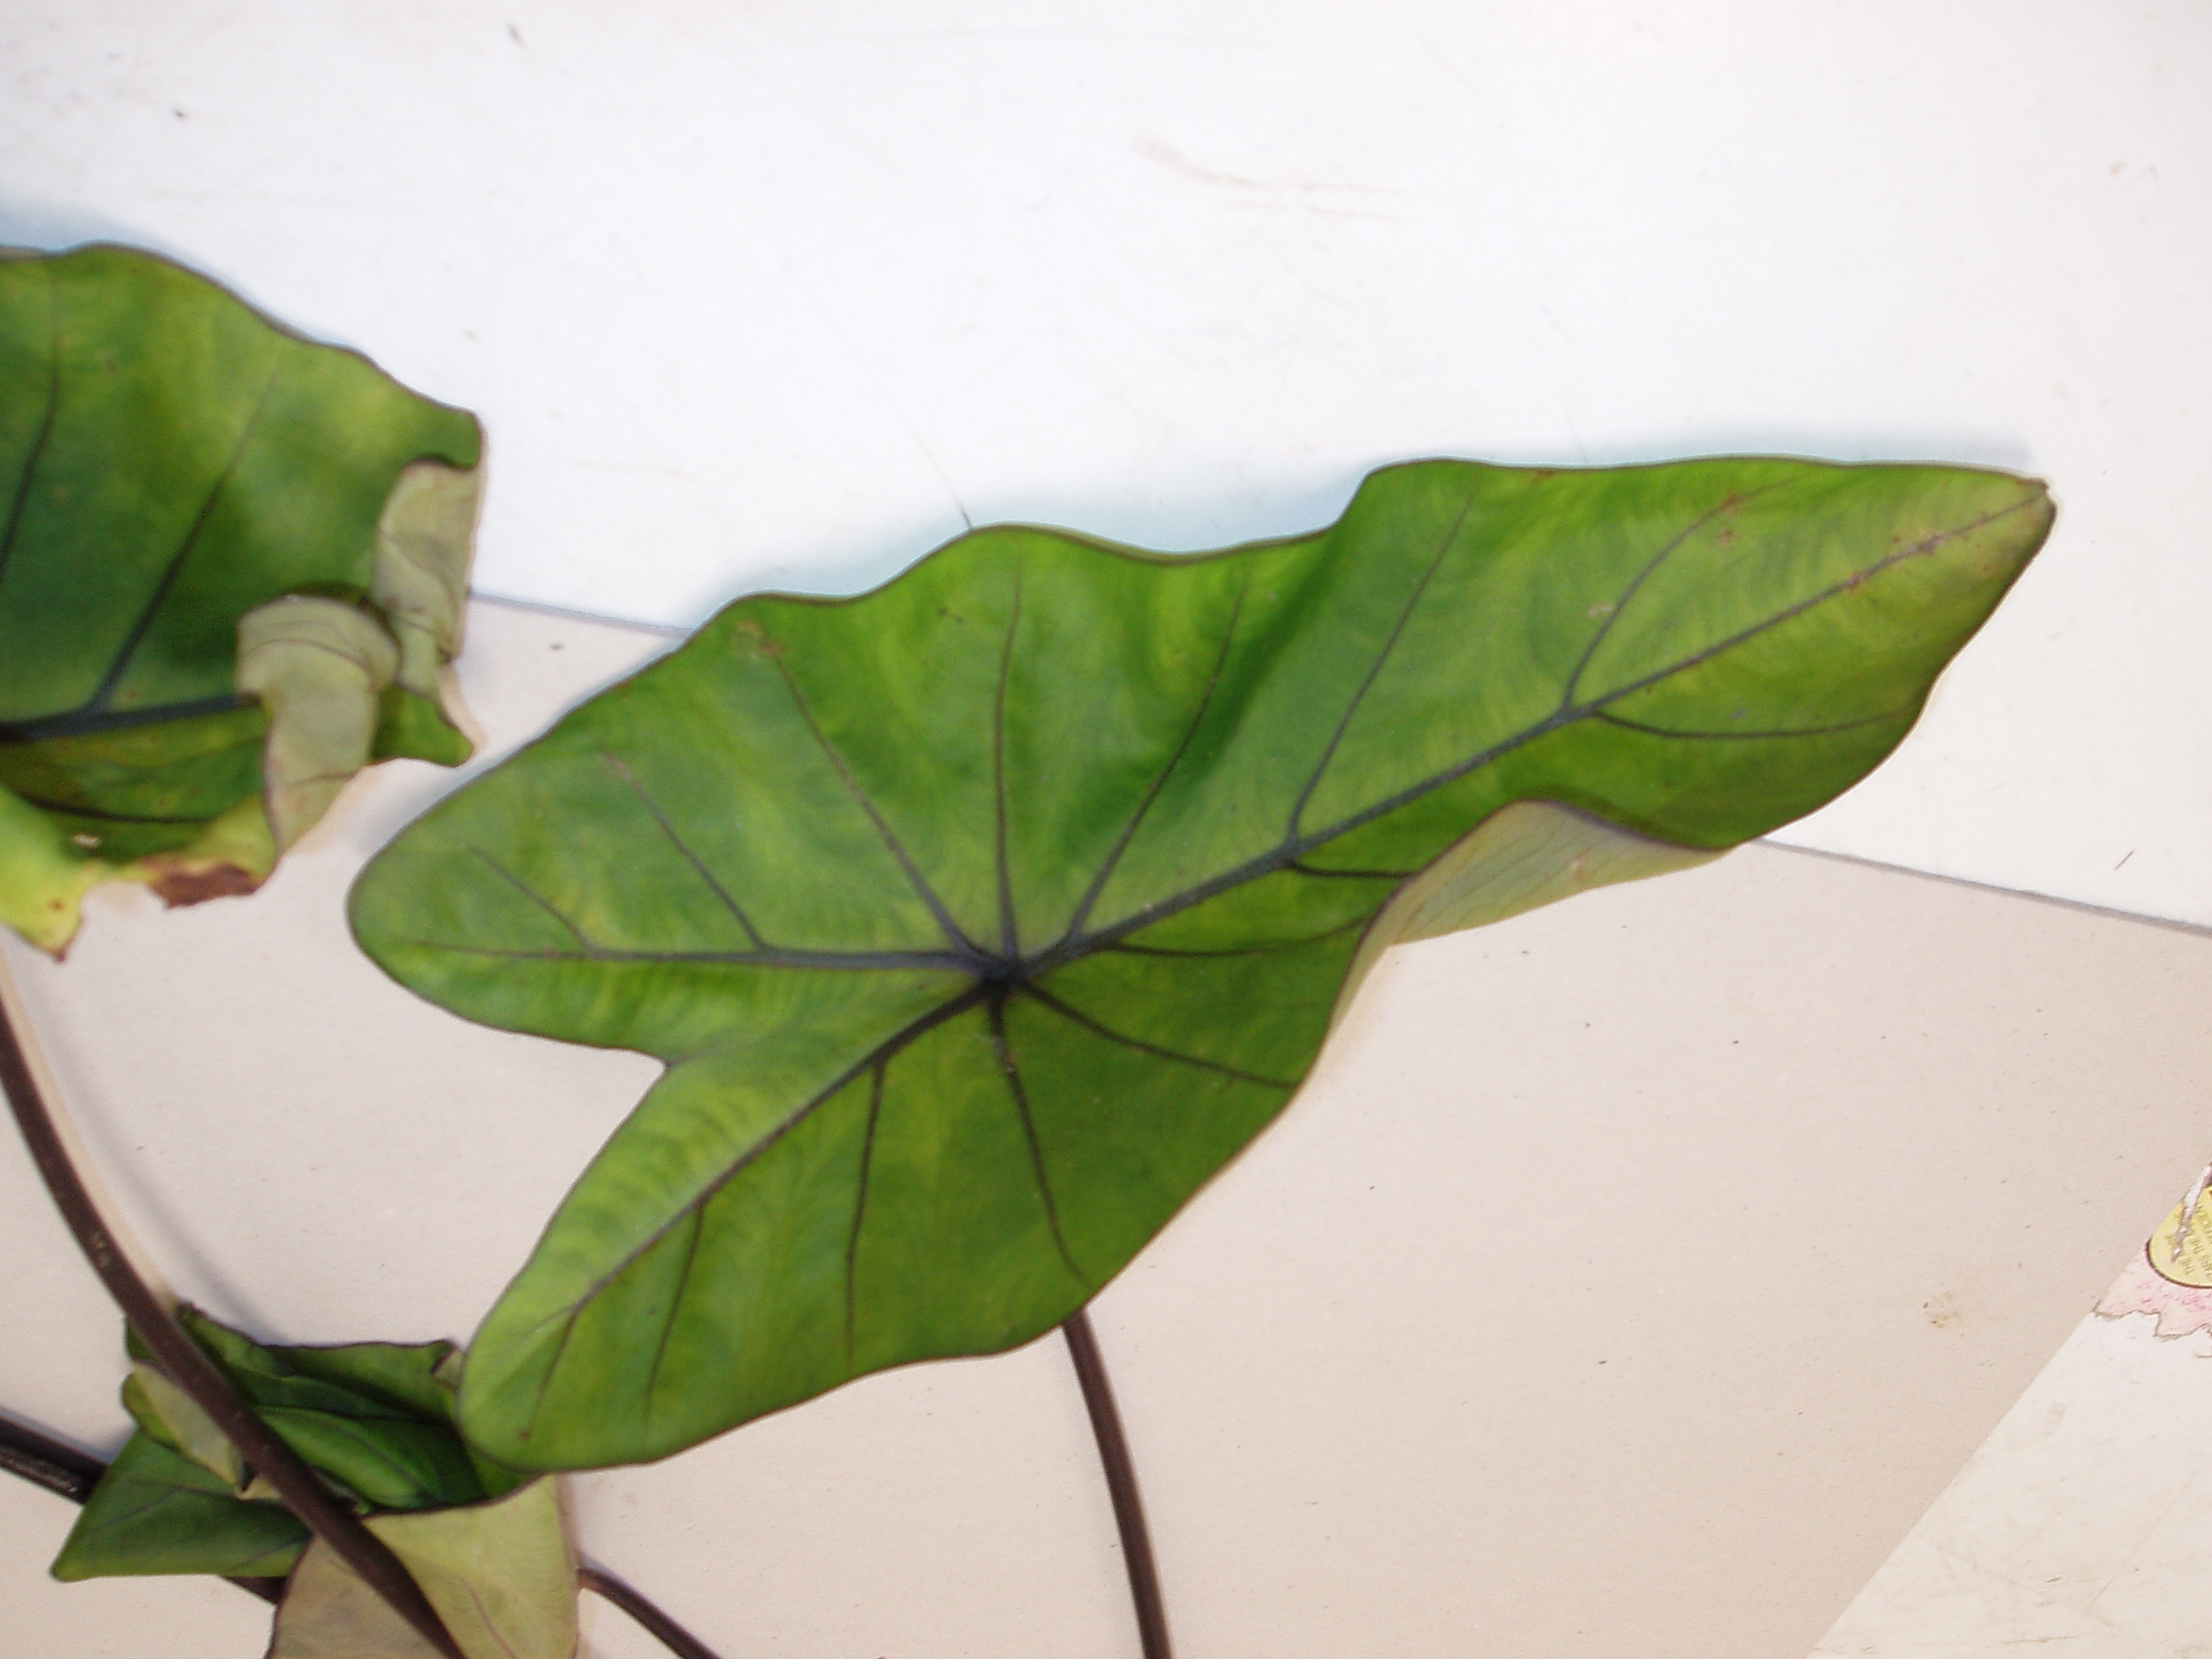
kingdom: Plantae
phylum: Tracheophyta
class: Liliopsida
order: Alismatales
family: Araceae
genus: Colocasia
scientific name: Colocasia esculenta
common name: Taro
